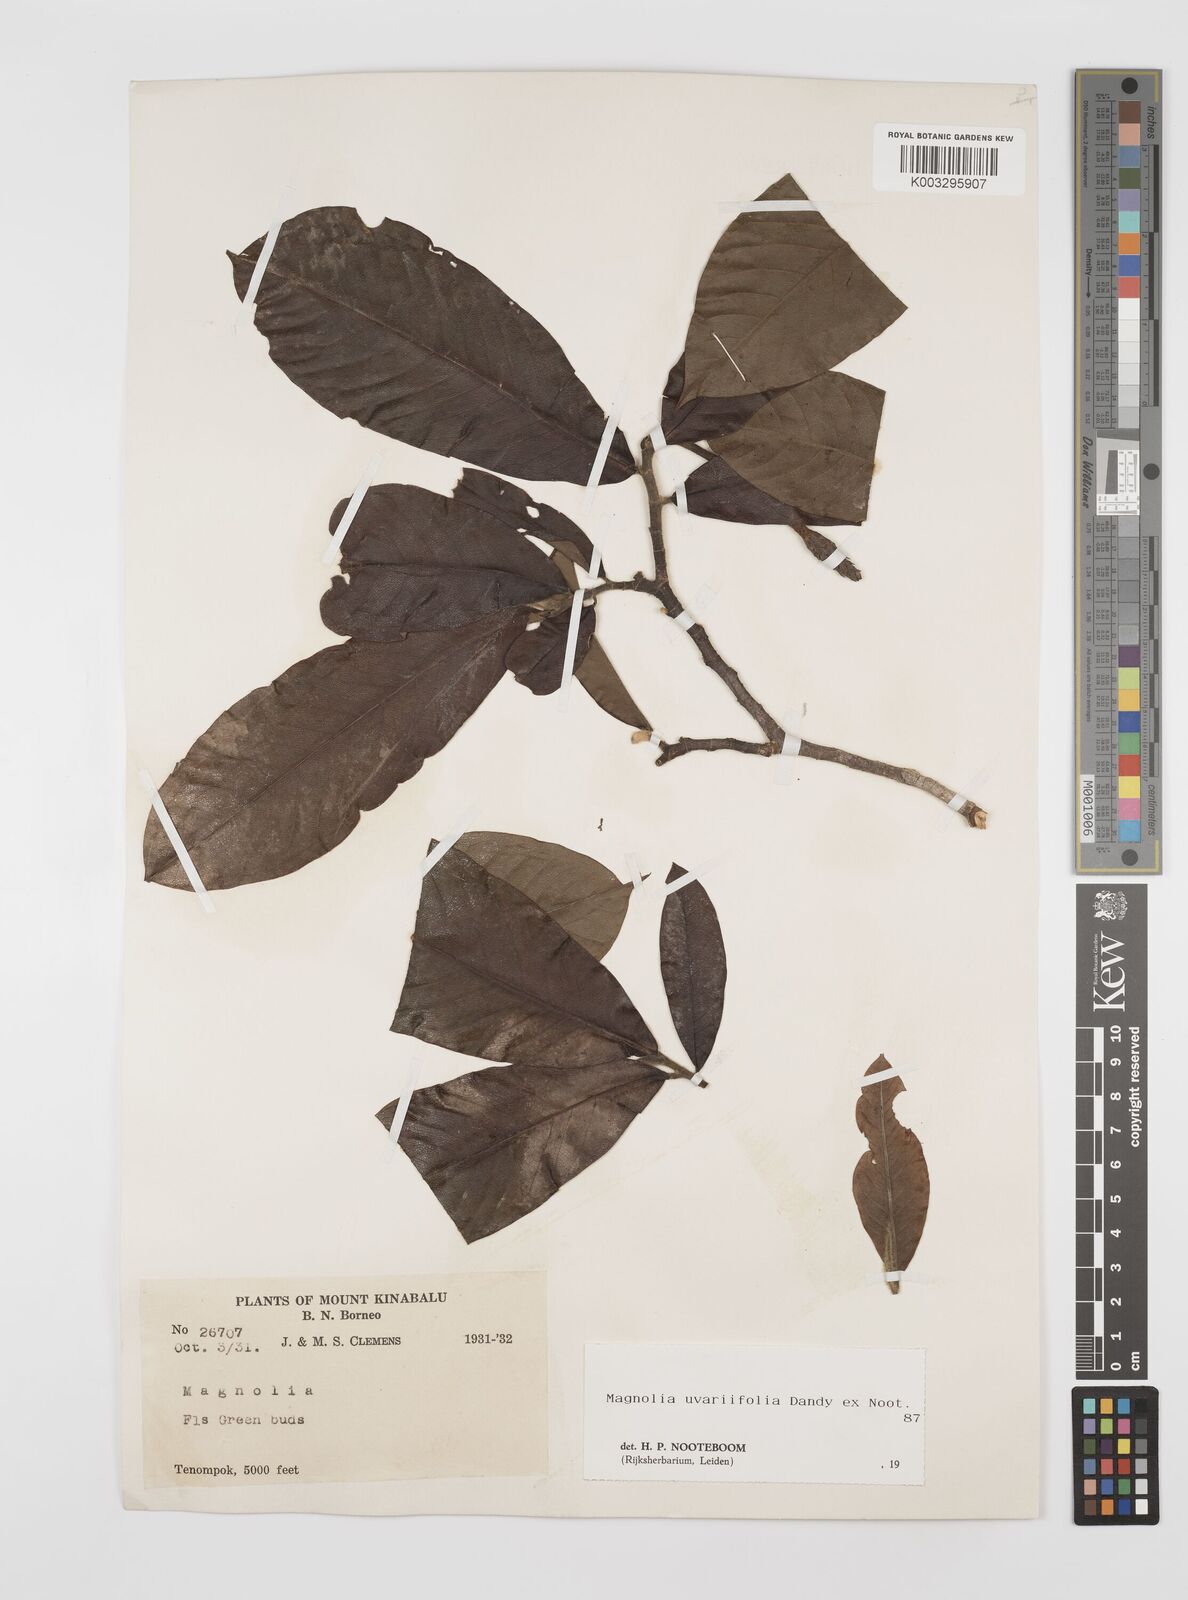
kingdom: Plantae
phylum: Tracheophyta
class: Magnoliopsida
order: Magnoliales
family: Magnoliaceae
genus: Magnolia
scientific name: Magnolia macklottii
